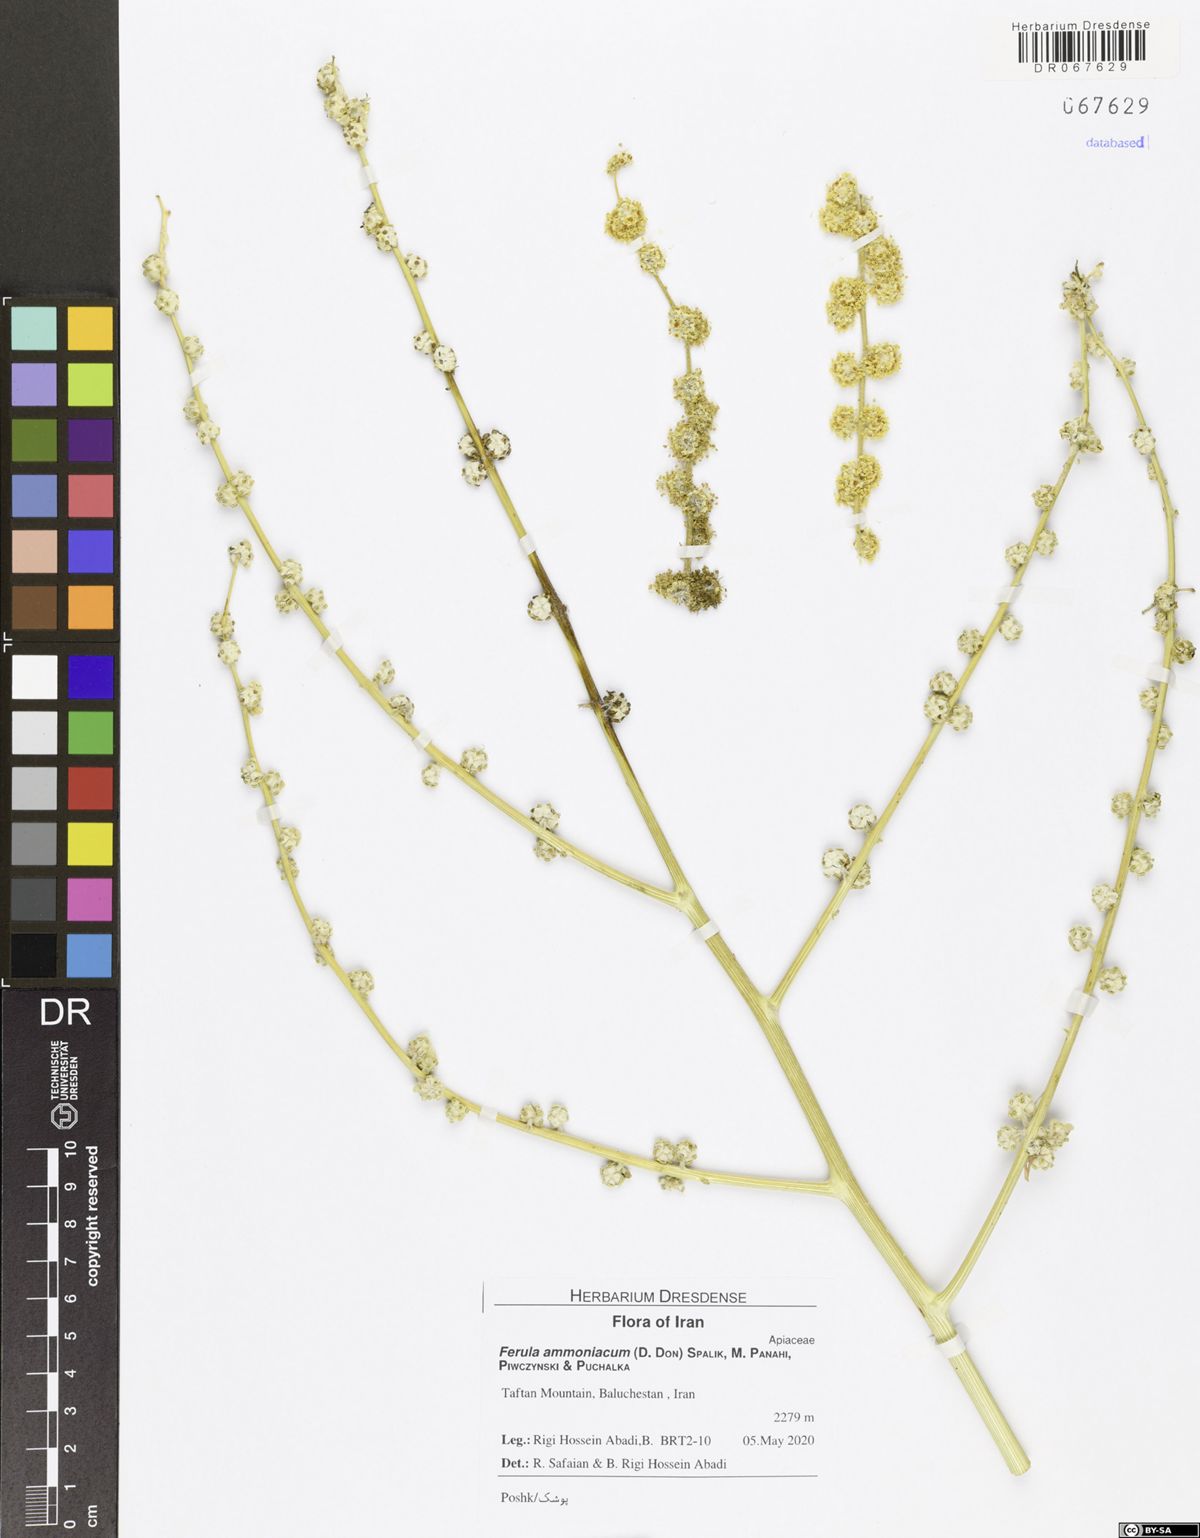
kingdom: Plantae
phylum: Tracheophyta
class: Magnoliopsida
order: Apiales
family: Apiaceae
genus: Ferula
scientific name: Ferula ammoniacum
